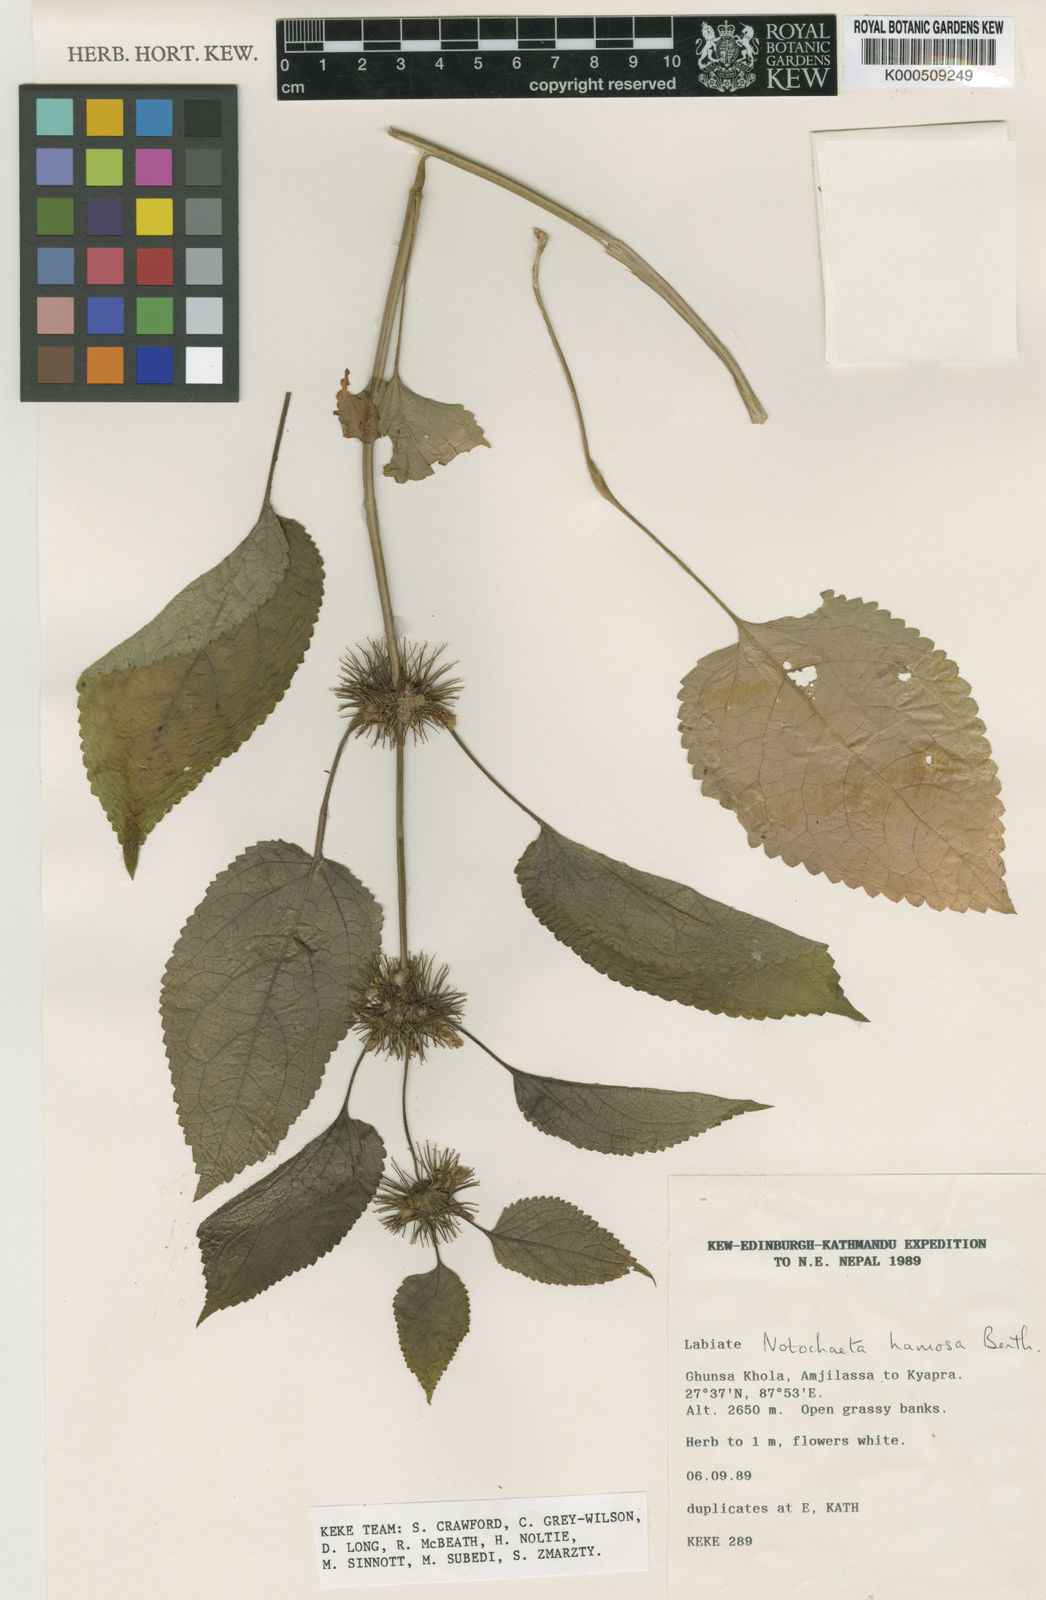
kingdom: Plantae
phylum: Tracheophyta
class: Magnoliopsida
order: Lamiales
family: Lamiaceae
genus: Phlomoides
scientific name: Phlomoides hamosa
